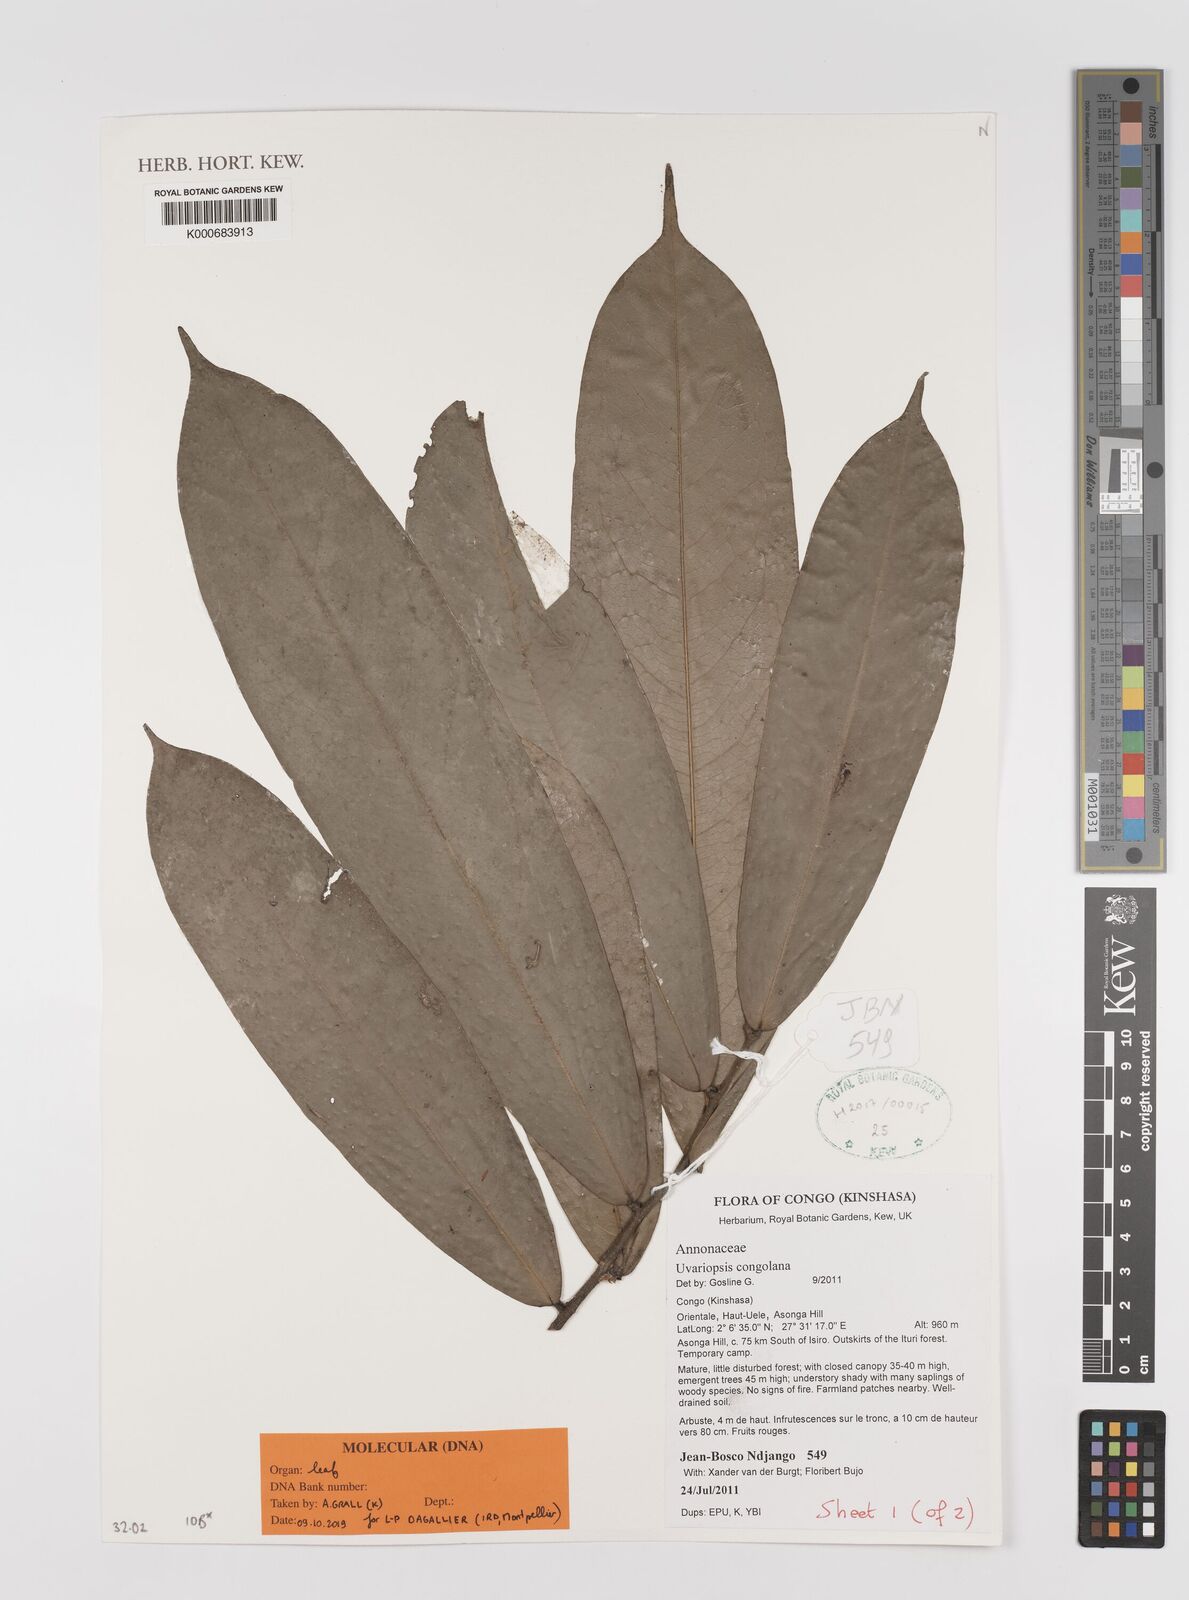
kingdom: Plantae
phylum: Tracheophyta
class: Magnoliopsida
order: Magnoliales
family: Annonaceae
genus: Uvariopsis
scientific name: Uvariopsis congolana
